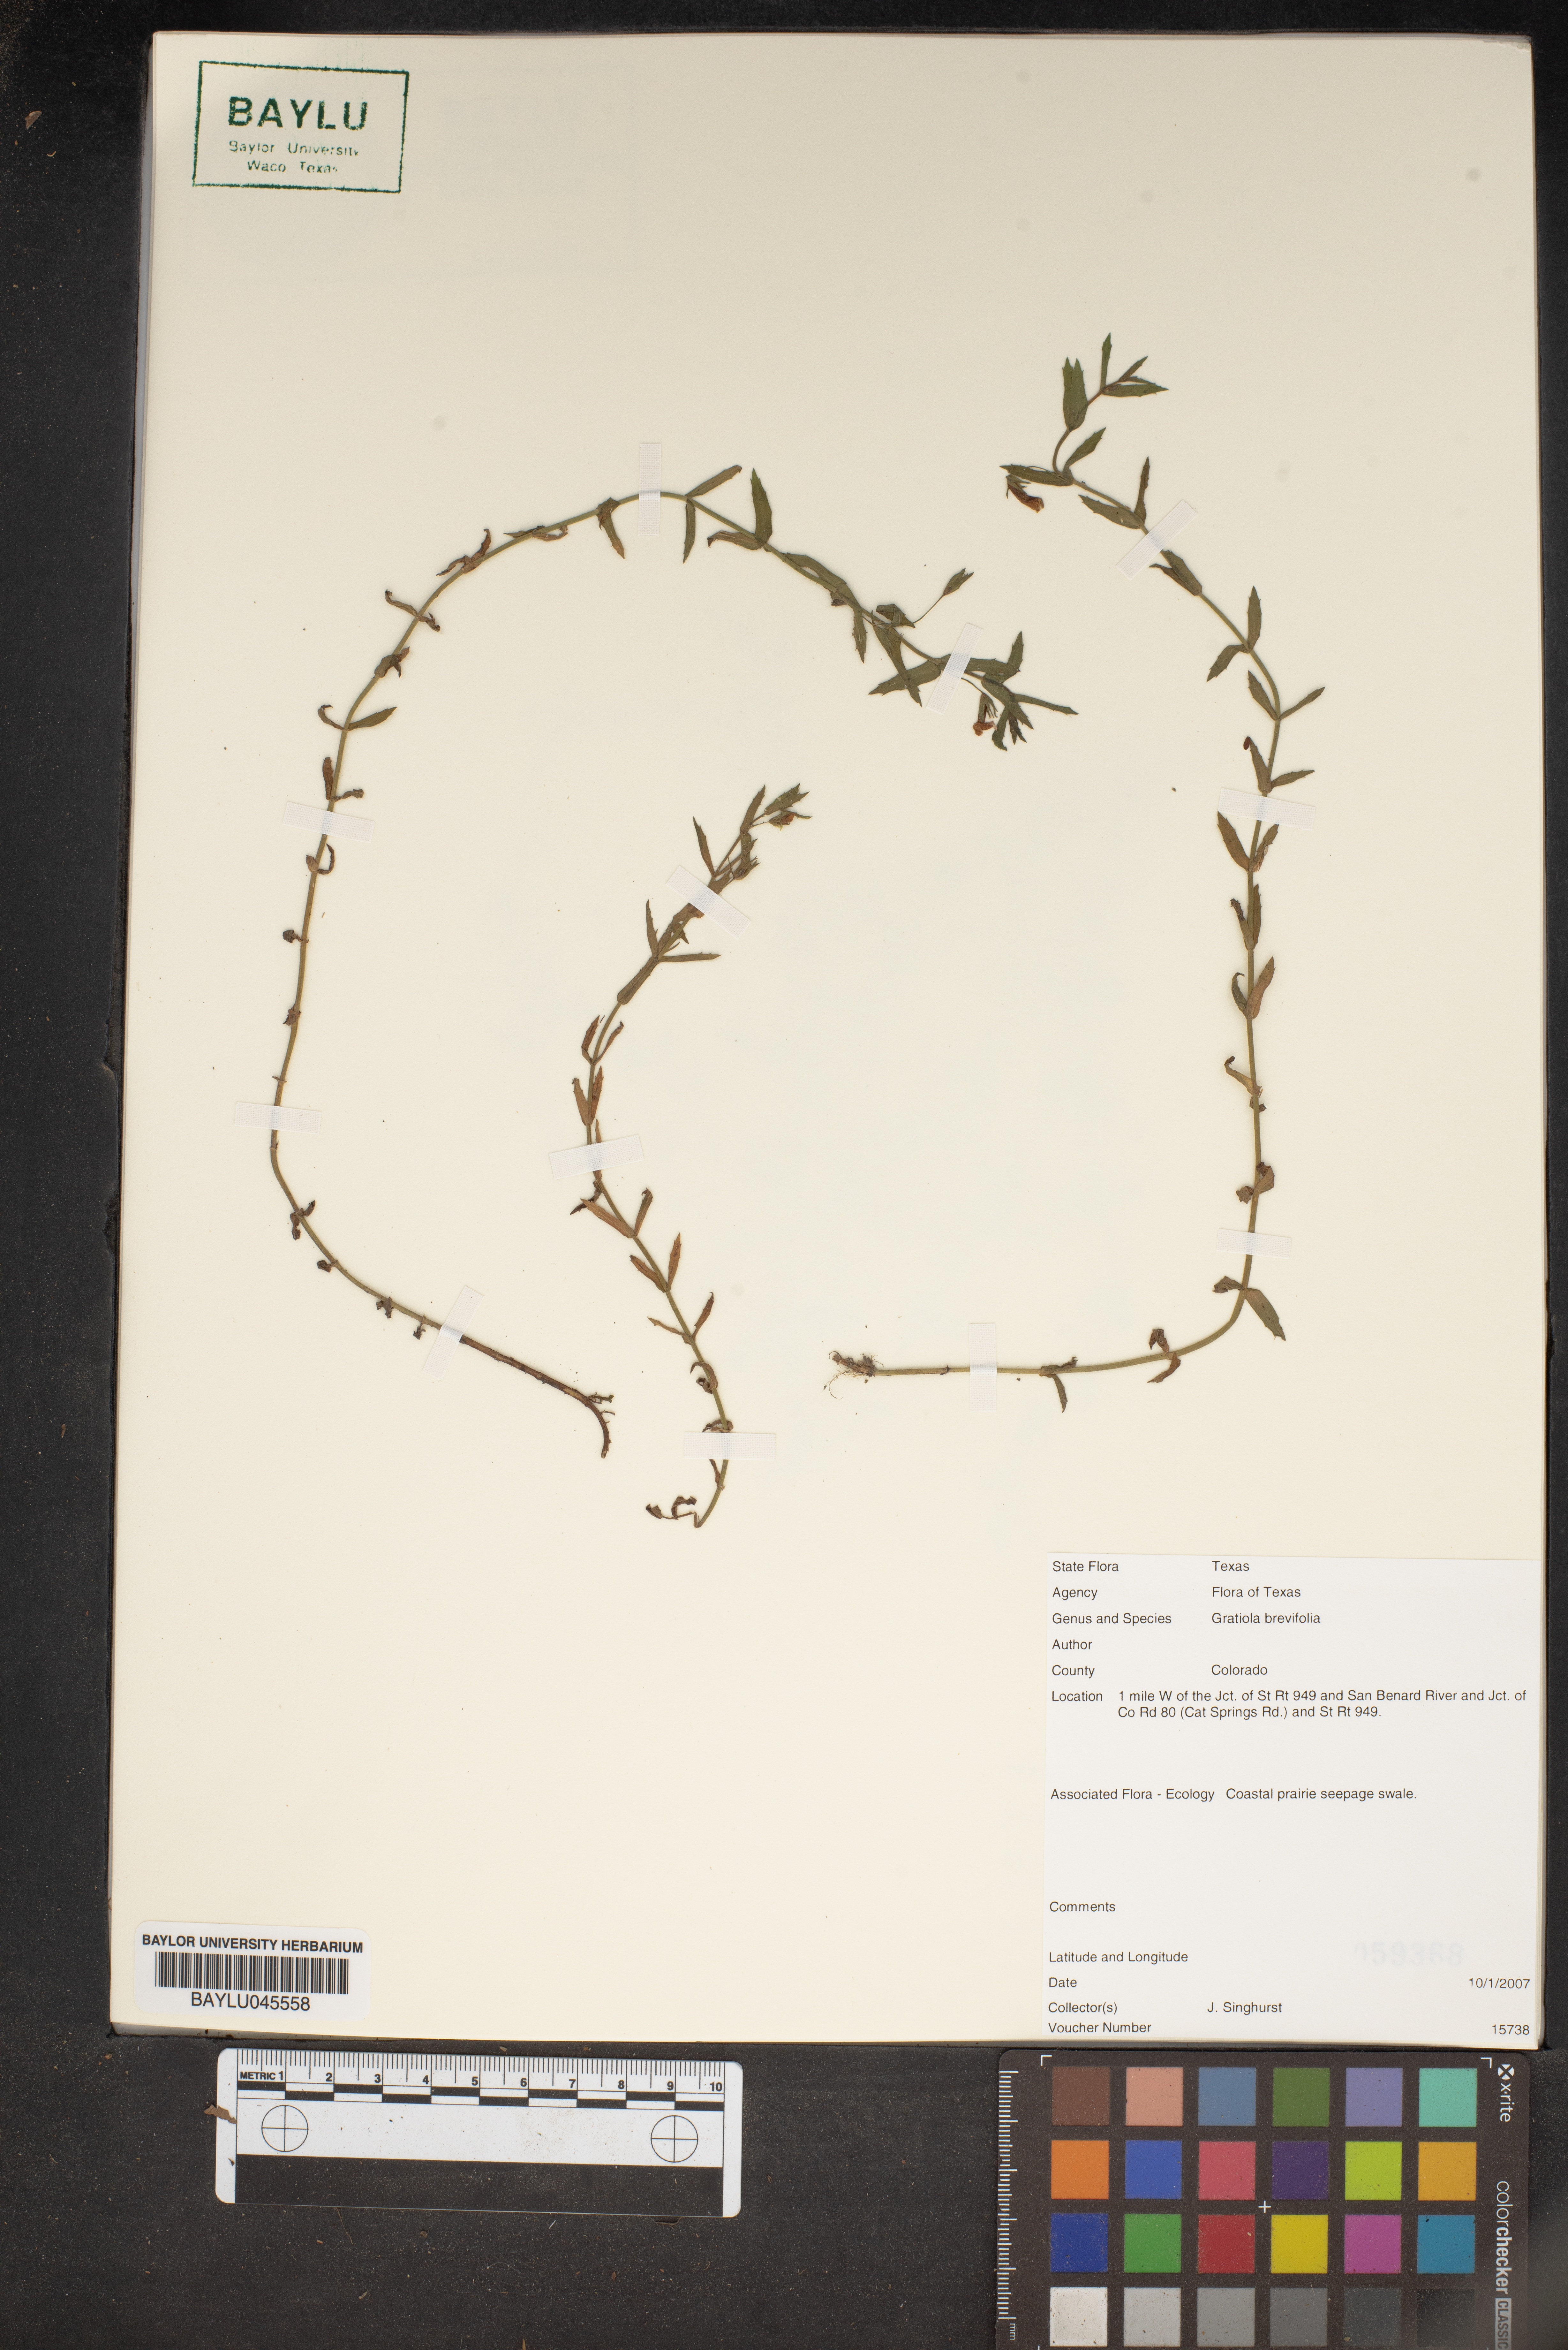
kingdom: Plantae
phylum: Tracheophyta
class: Magnoliopsida
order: Lamiales
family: Plantaginaceae
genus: Gratiola
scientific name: Gratiola brevifolia
